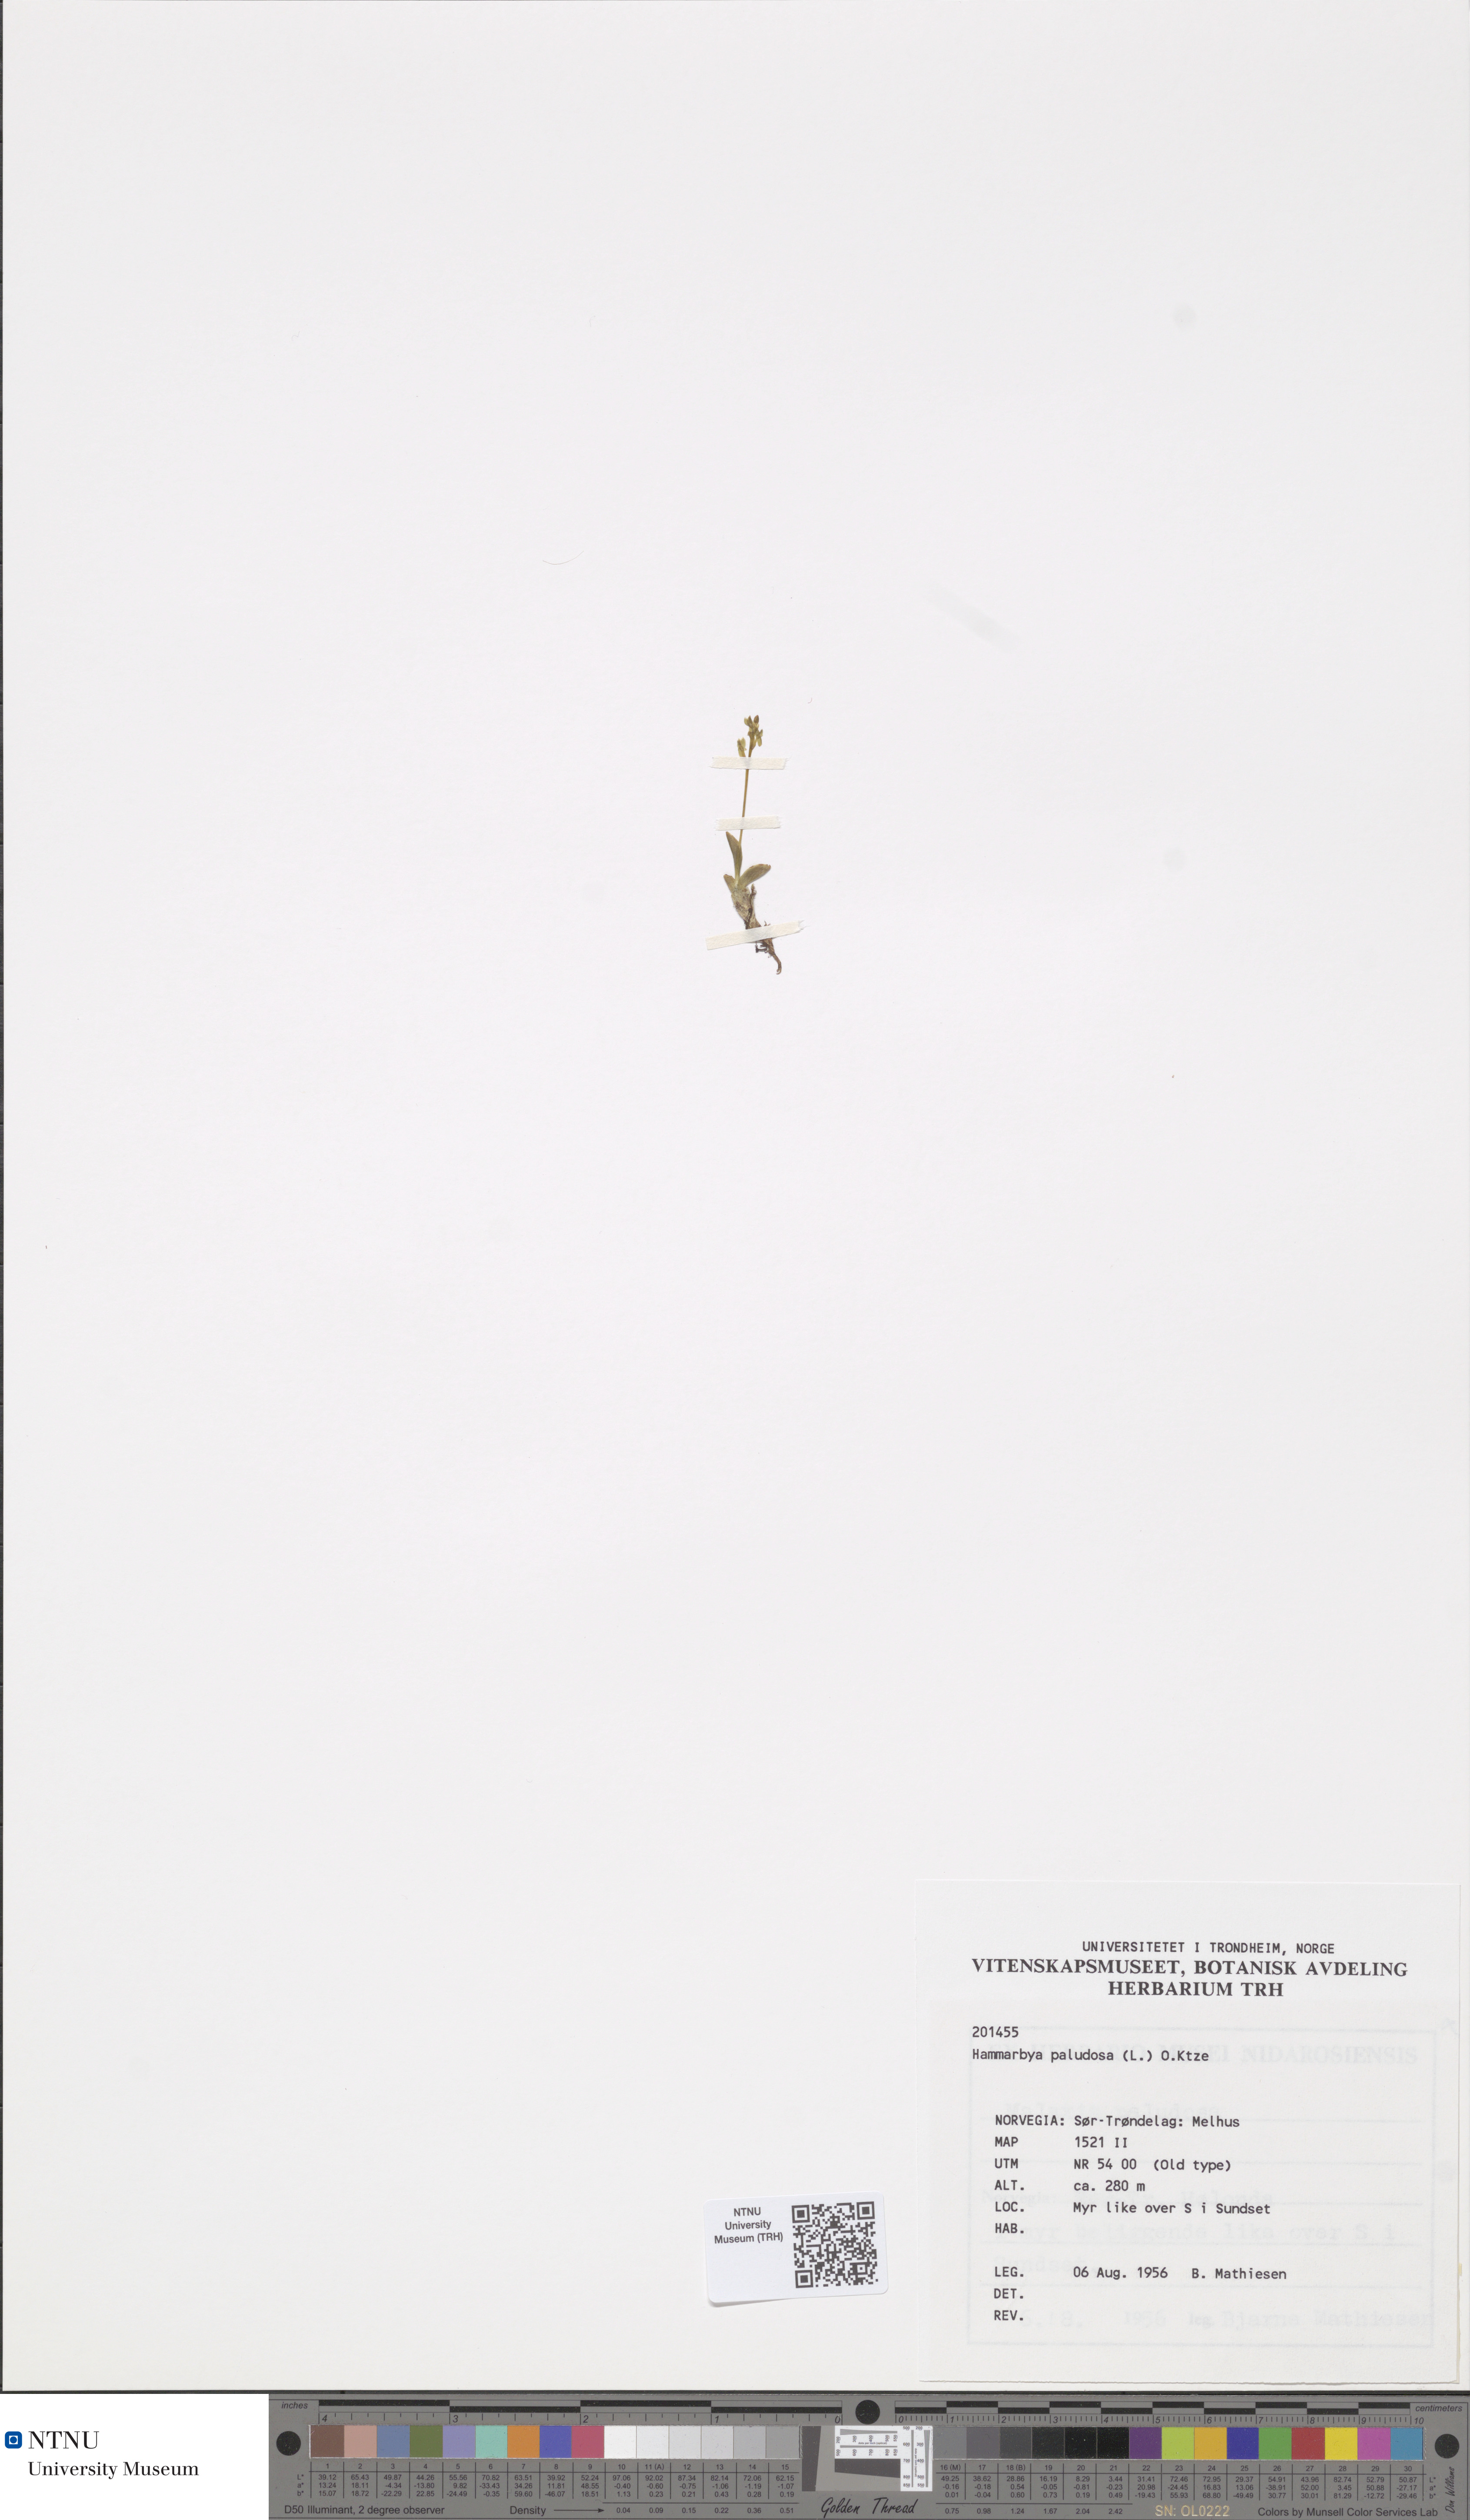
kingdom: Plantae
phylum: Tracheophyta
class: Liliopsida
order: Asparagales
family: Orchidaceae
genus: Hammarbya
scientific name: Hammarbya paludosa
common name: Bog orchid
